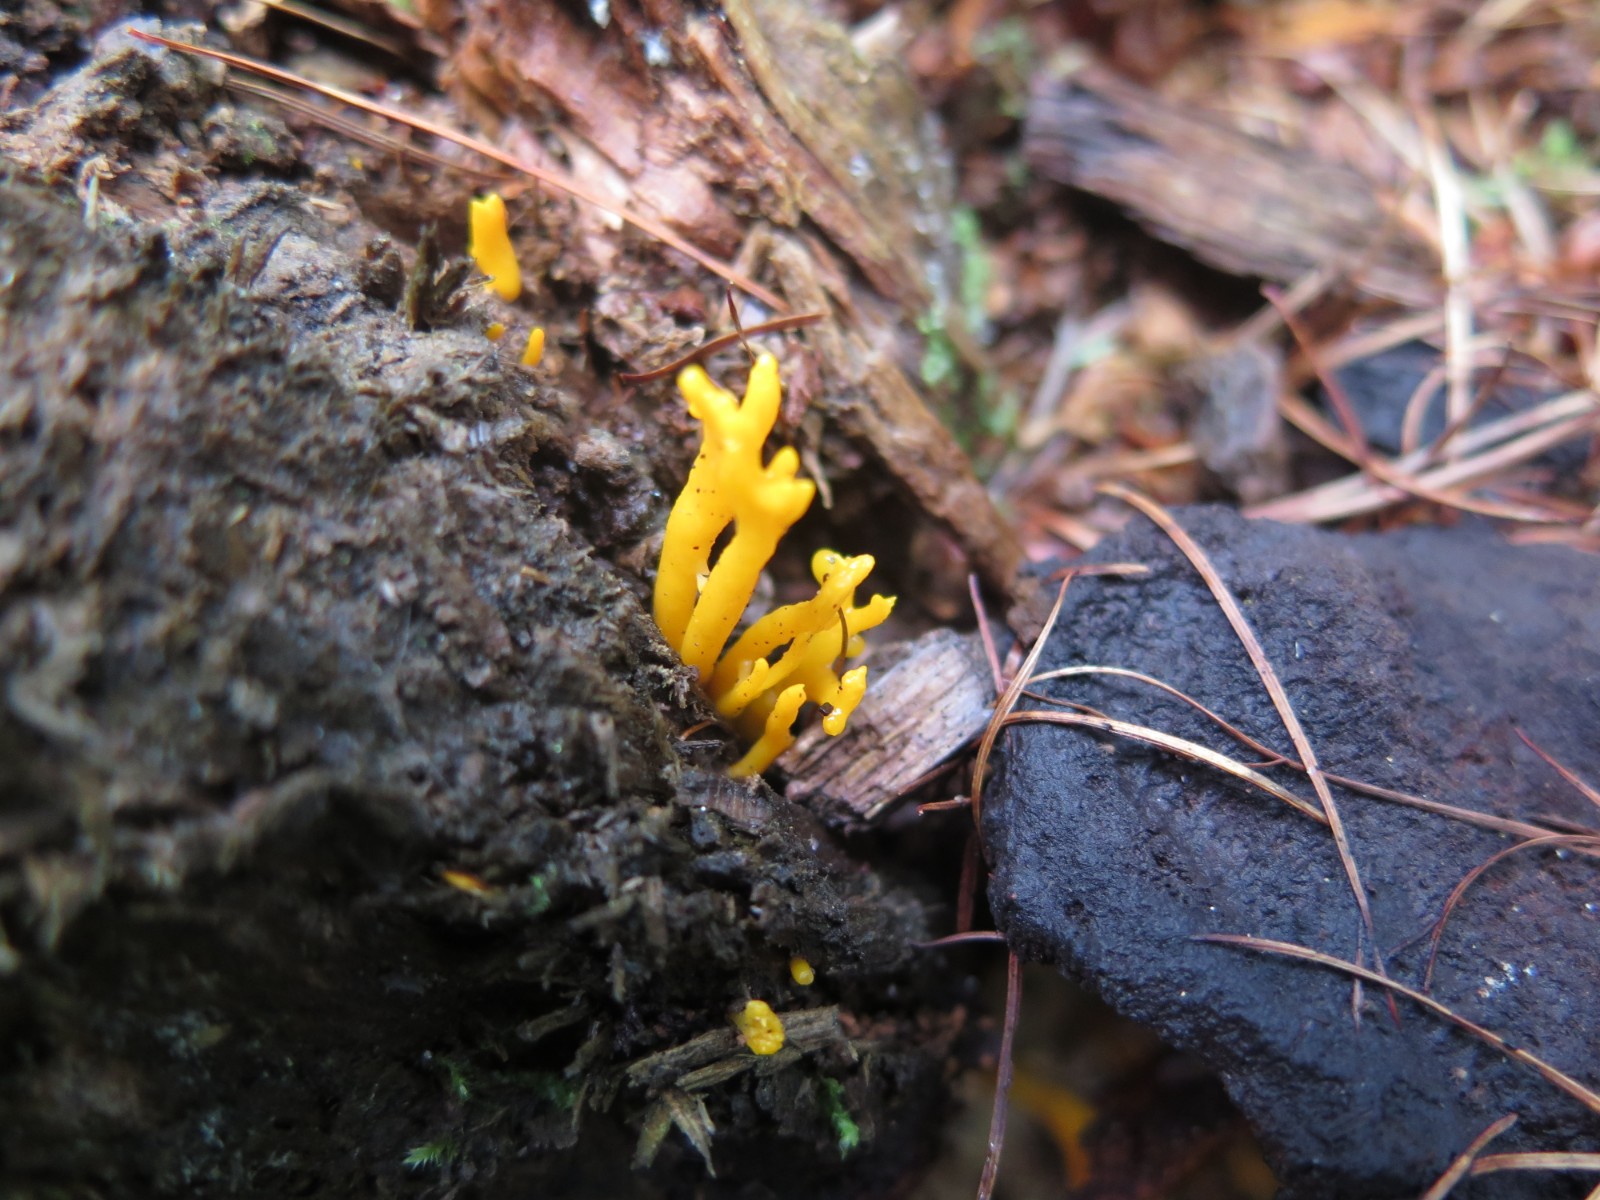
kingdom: Fungi
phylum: Basidiomycota
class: Dacrymycetes
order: Dacrymycetales
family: Dacrymycetaceae
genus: Calocera
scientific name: Calocera furcata
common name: fyrre-guldgaffel
